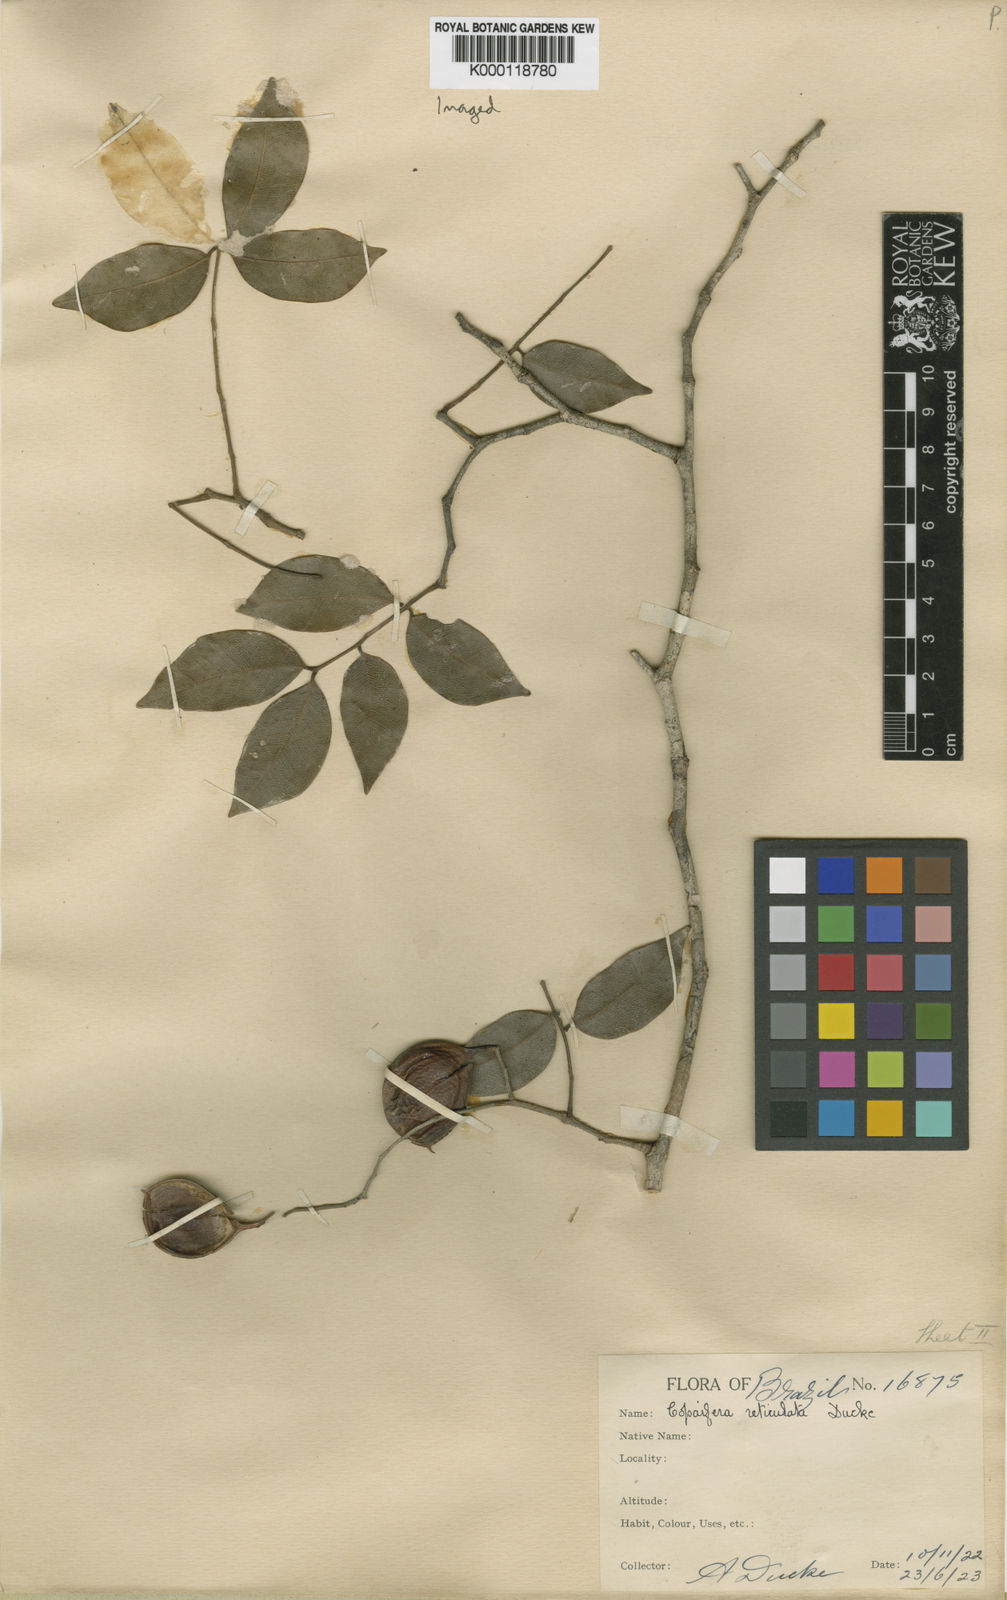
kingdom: Plantae
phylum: Tracheophyta
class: Magnoliopsida
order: Fabales
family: Fabaceae
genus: Copaifera
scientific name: Copaifera copaibo
